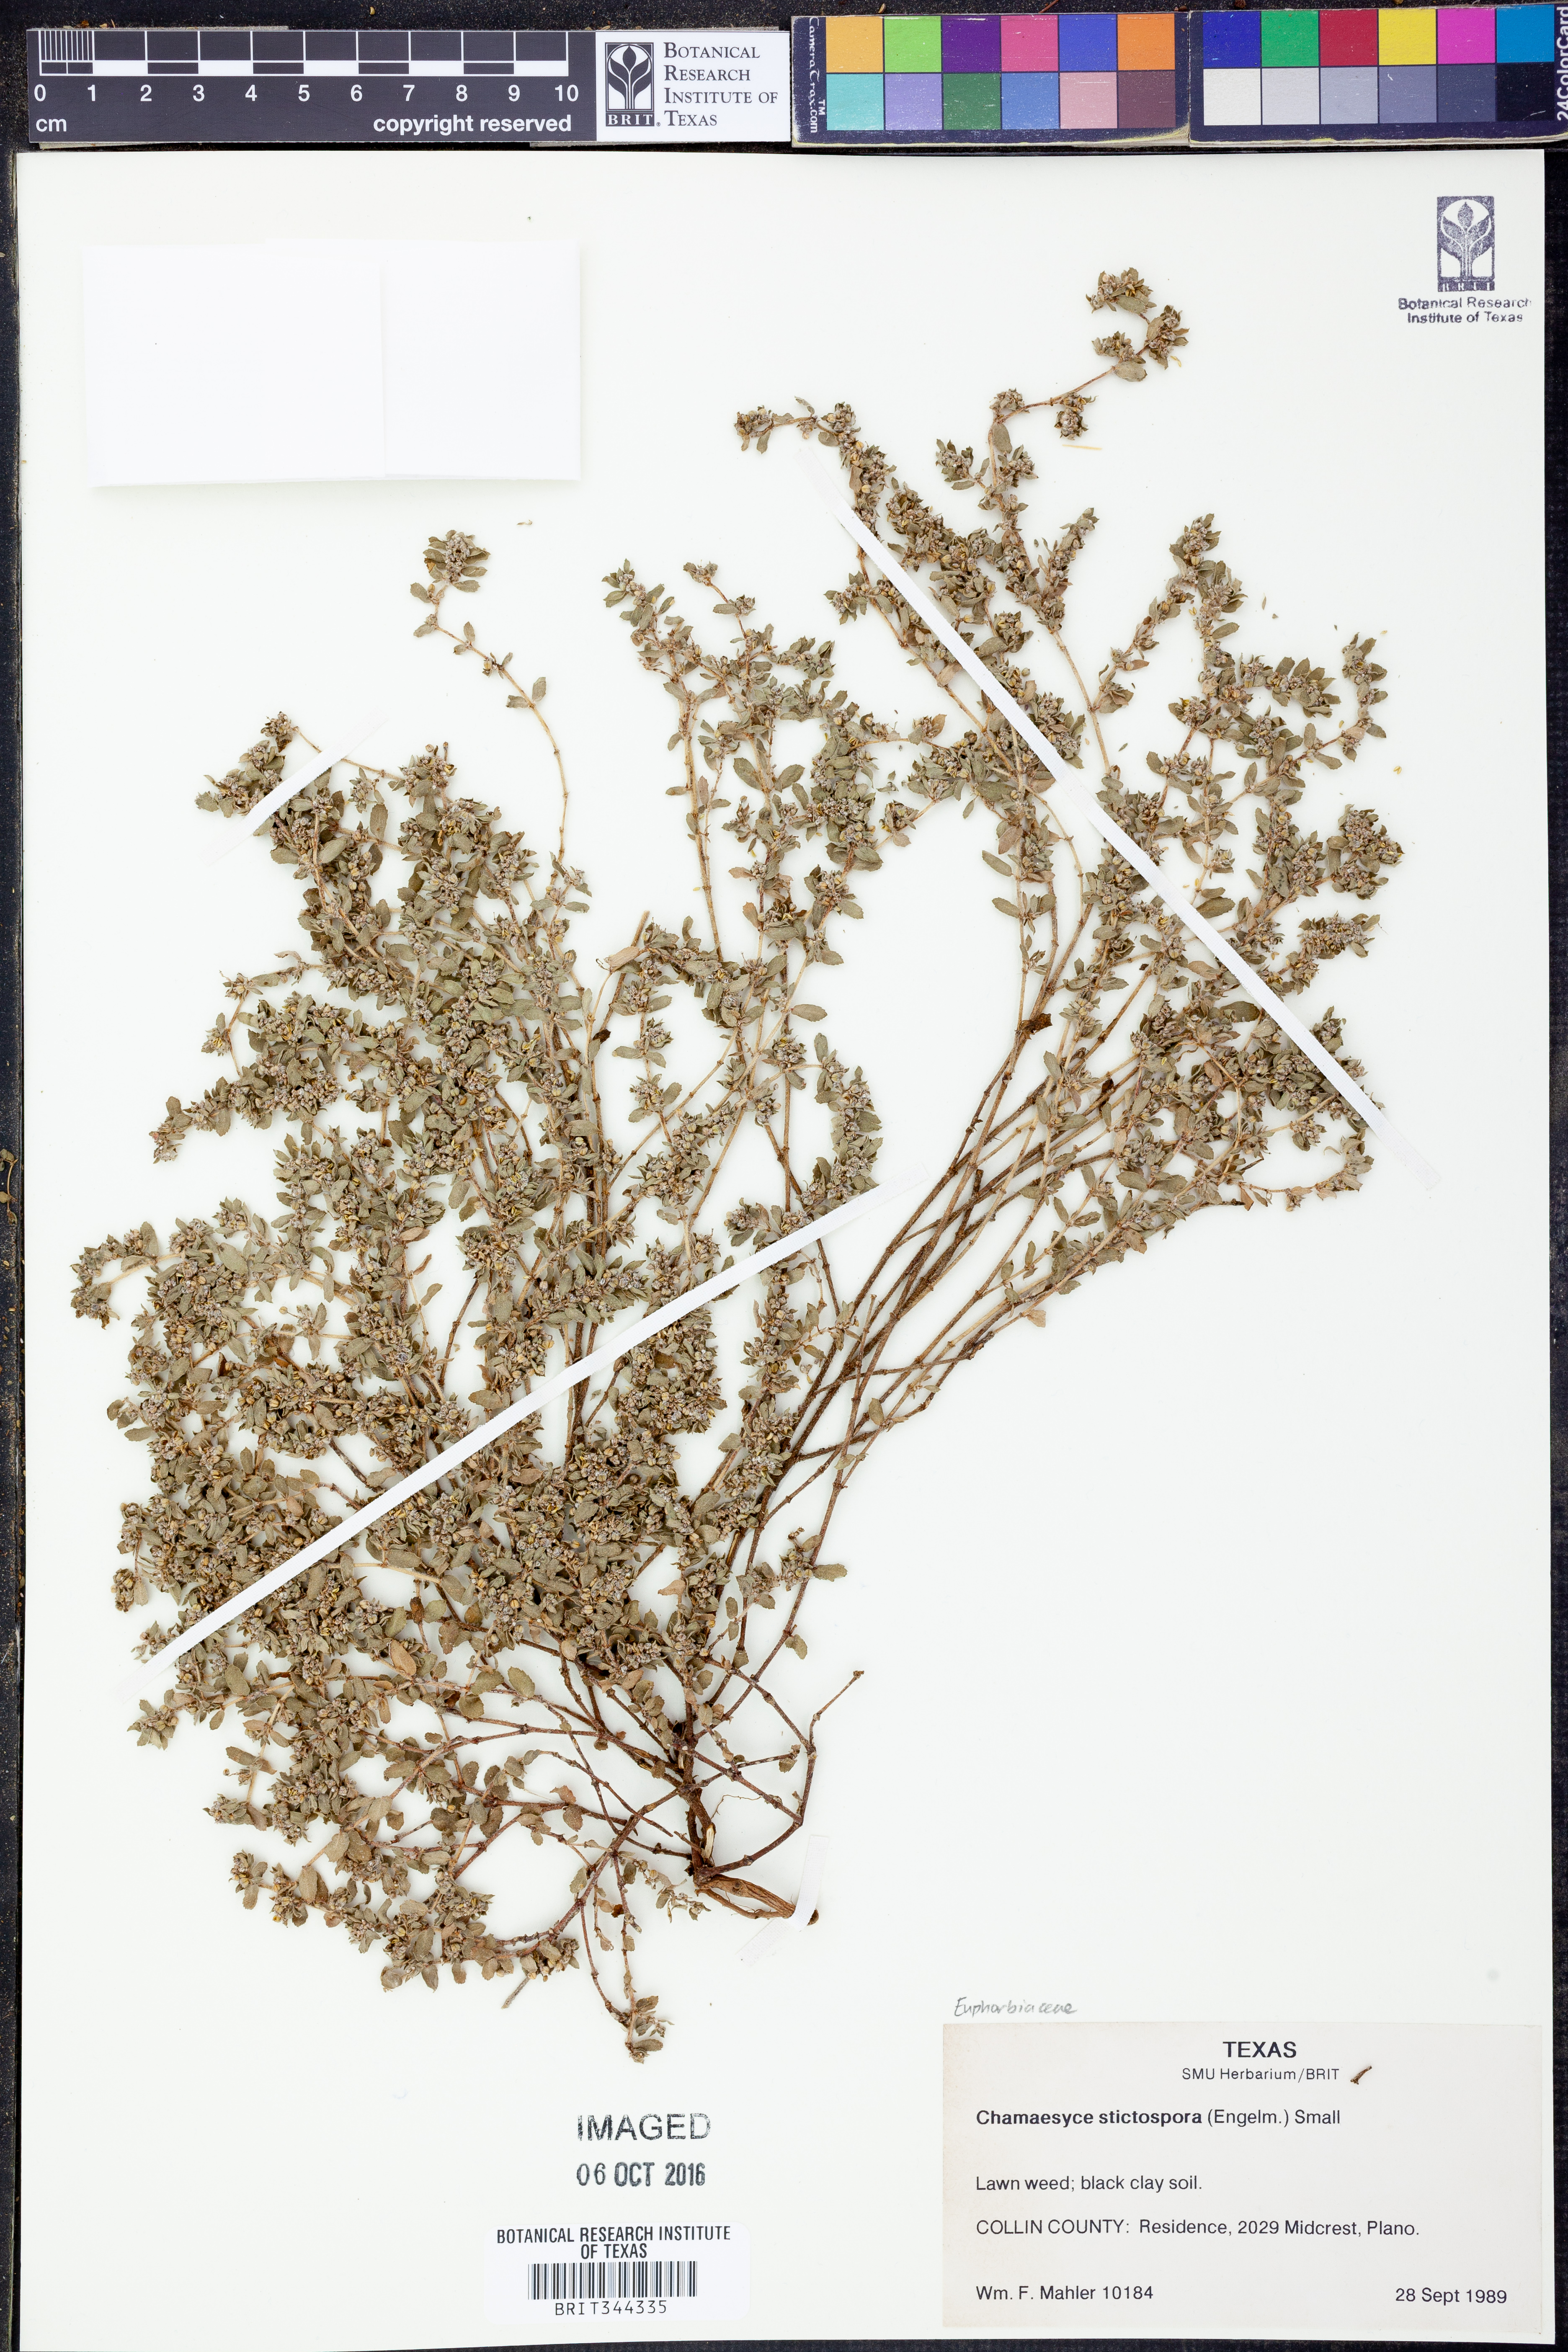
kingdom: Plantae
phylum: Tracheophyta
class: Magnoliopsida
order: Malpighiales
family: Euphorbiaceae
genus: Euphorbia
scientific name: Euphorbia stictospora
